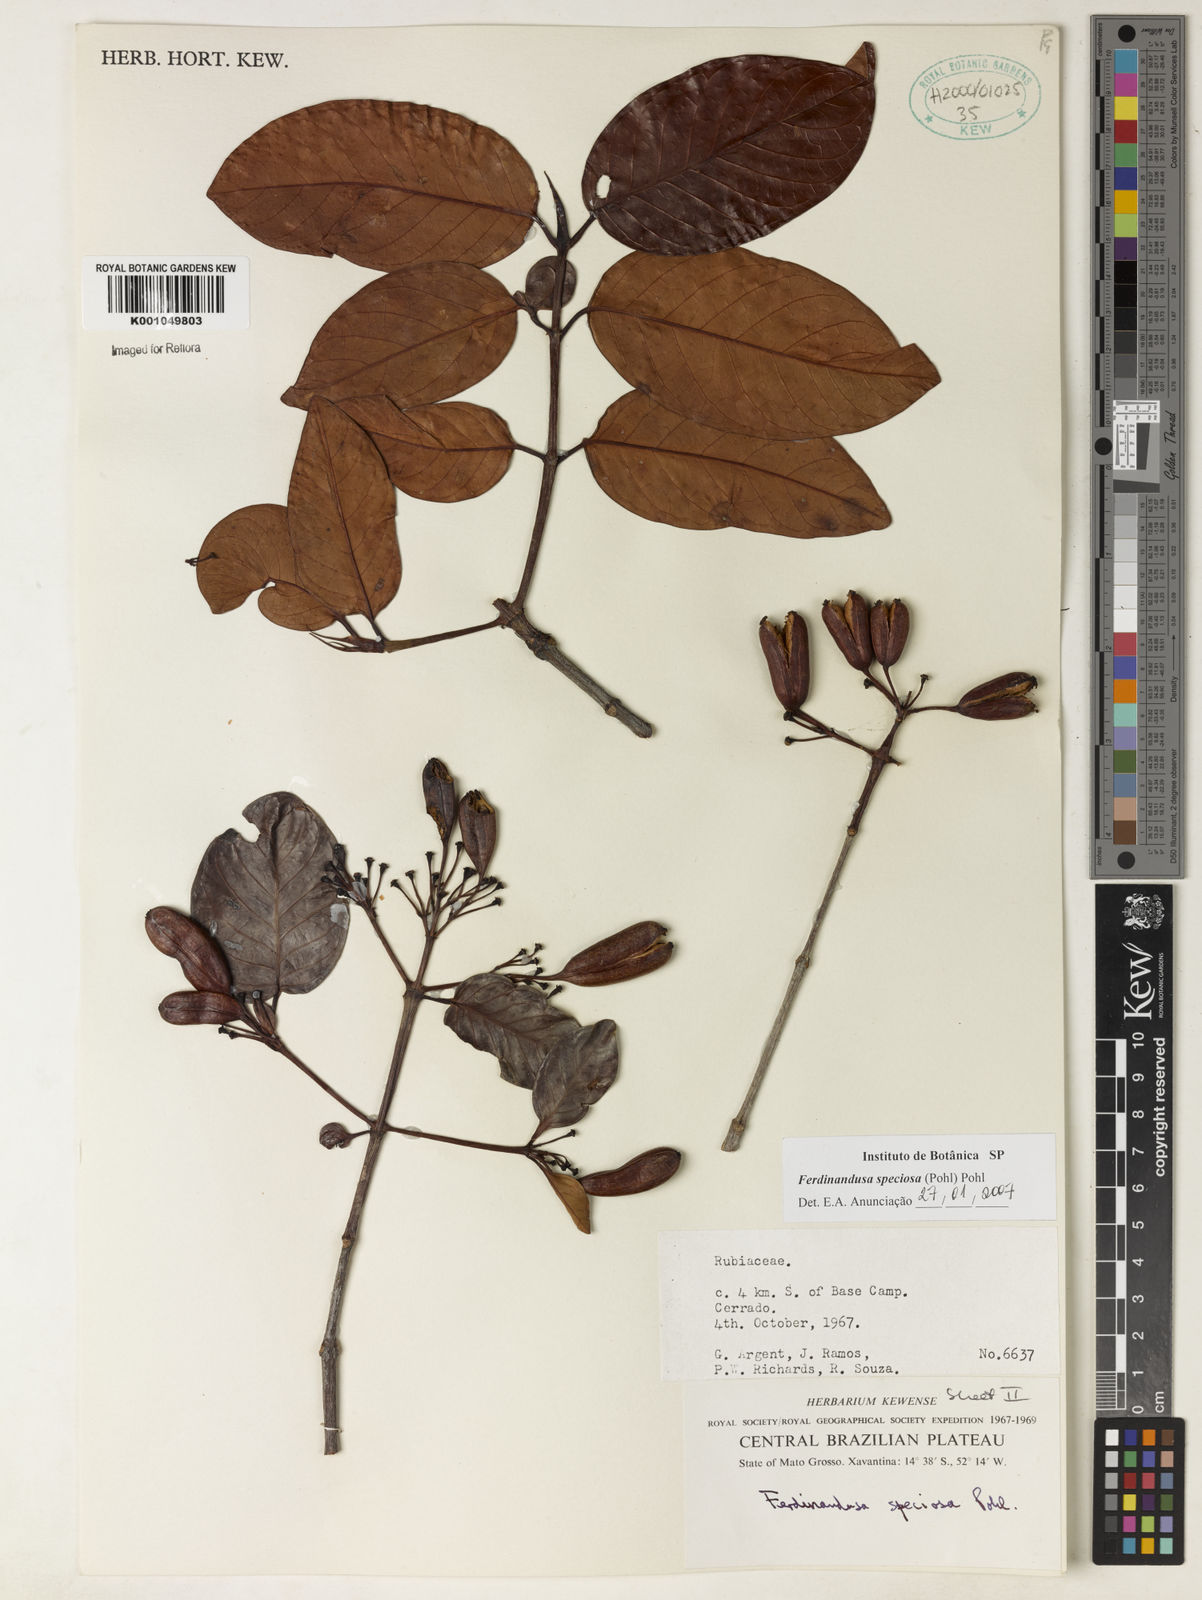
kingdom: Plantae
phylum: Tracheophyta
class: Magnoliopsida
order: Gentianales
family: Rubiaceae
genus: Ferdinandusa
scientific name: Ferdinandusa speciosa
